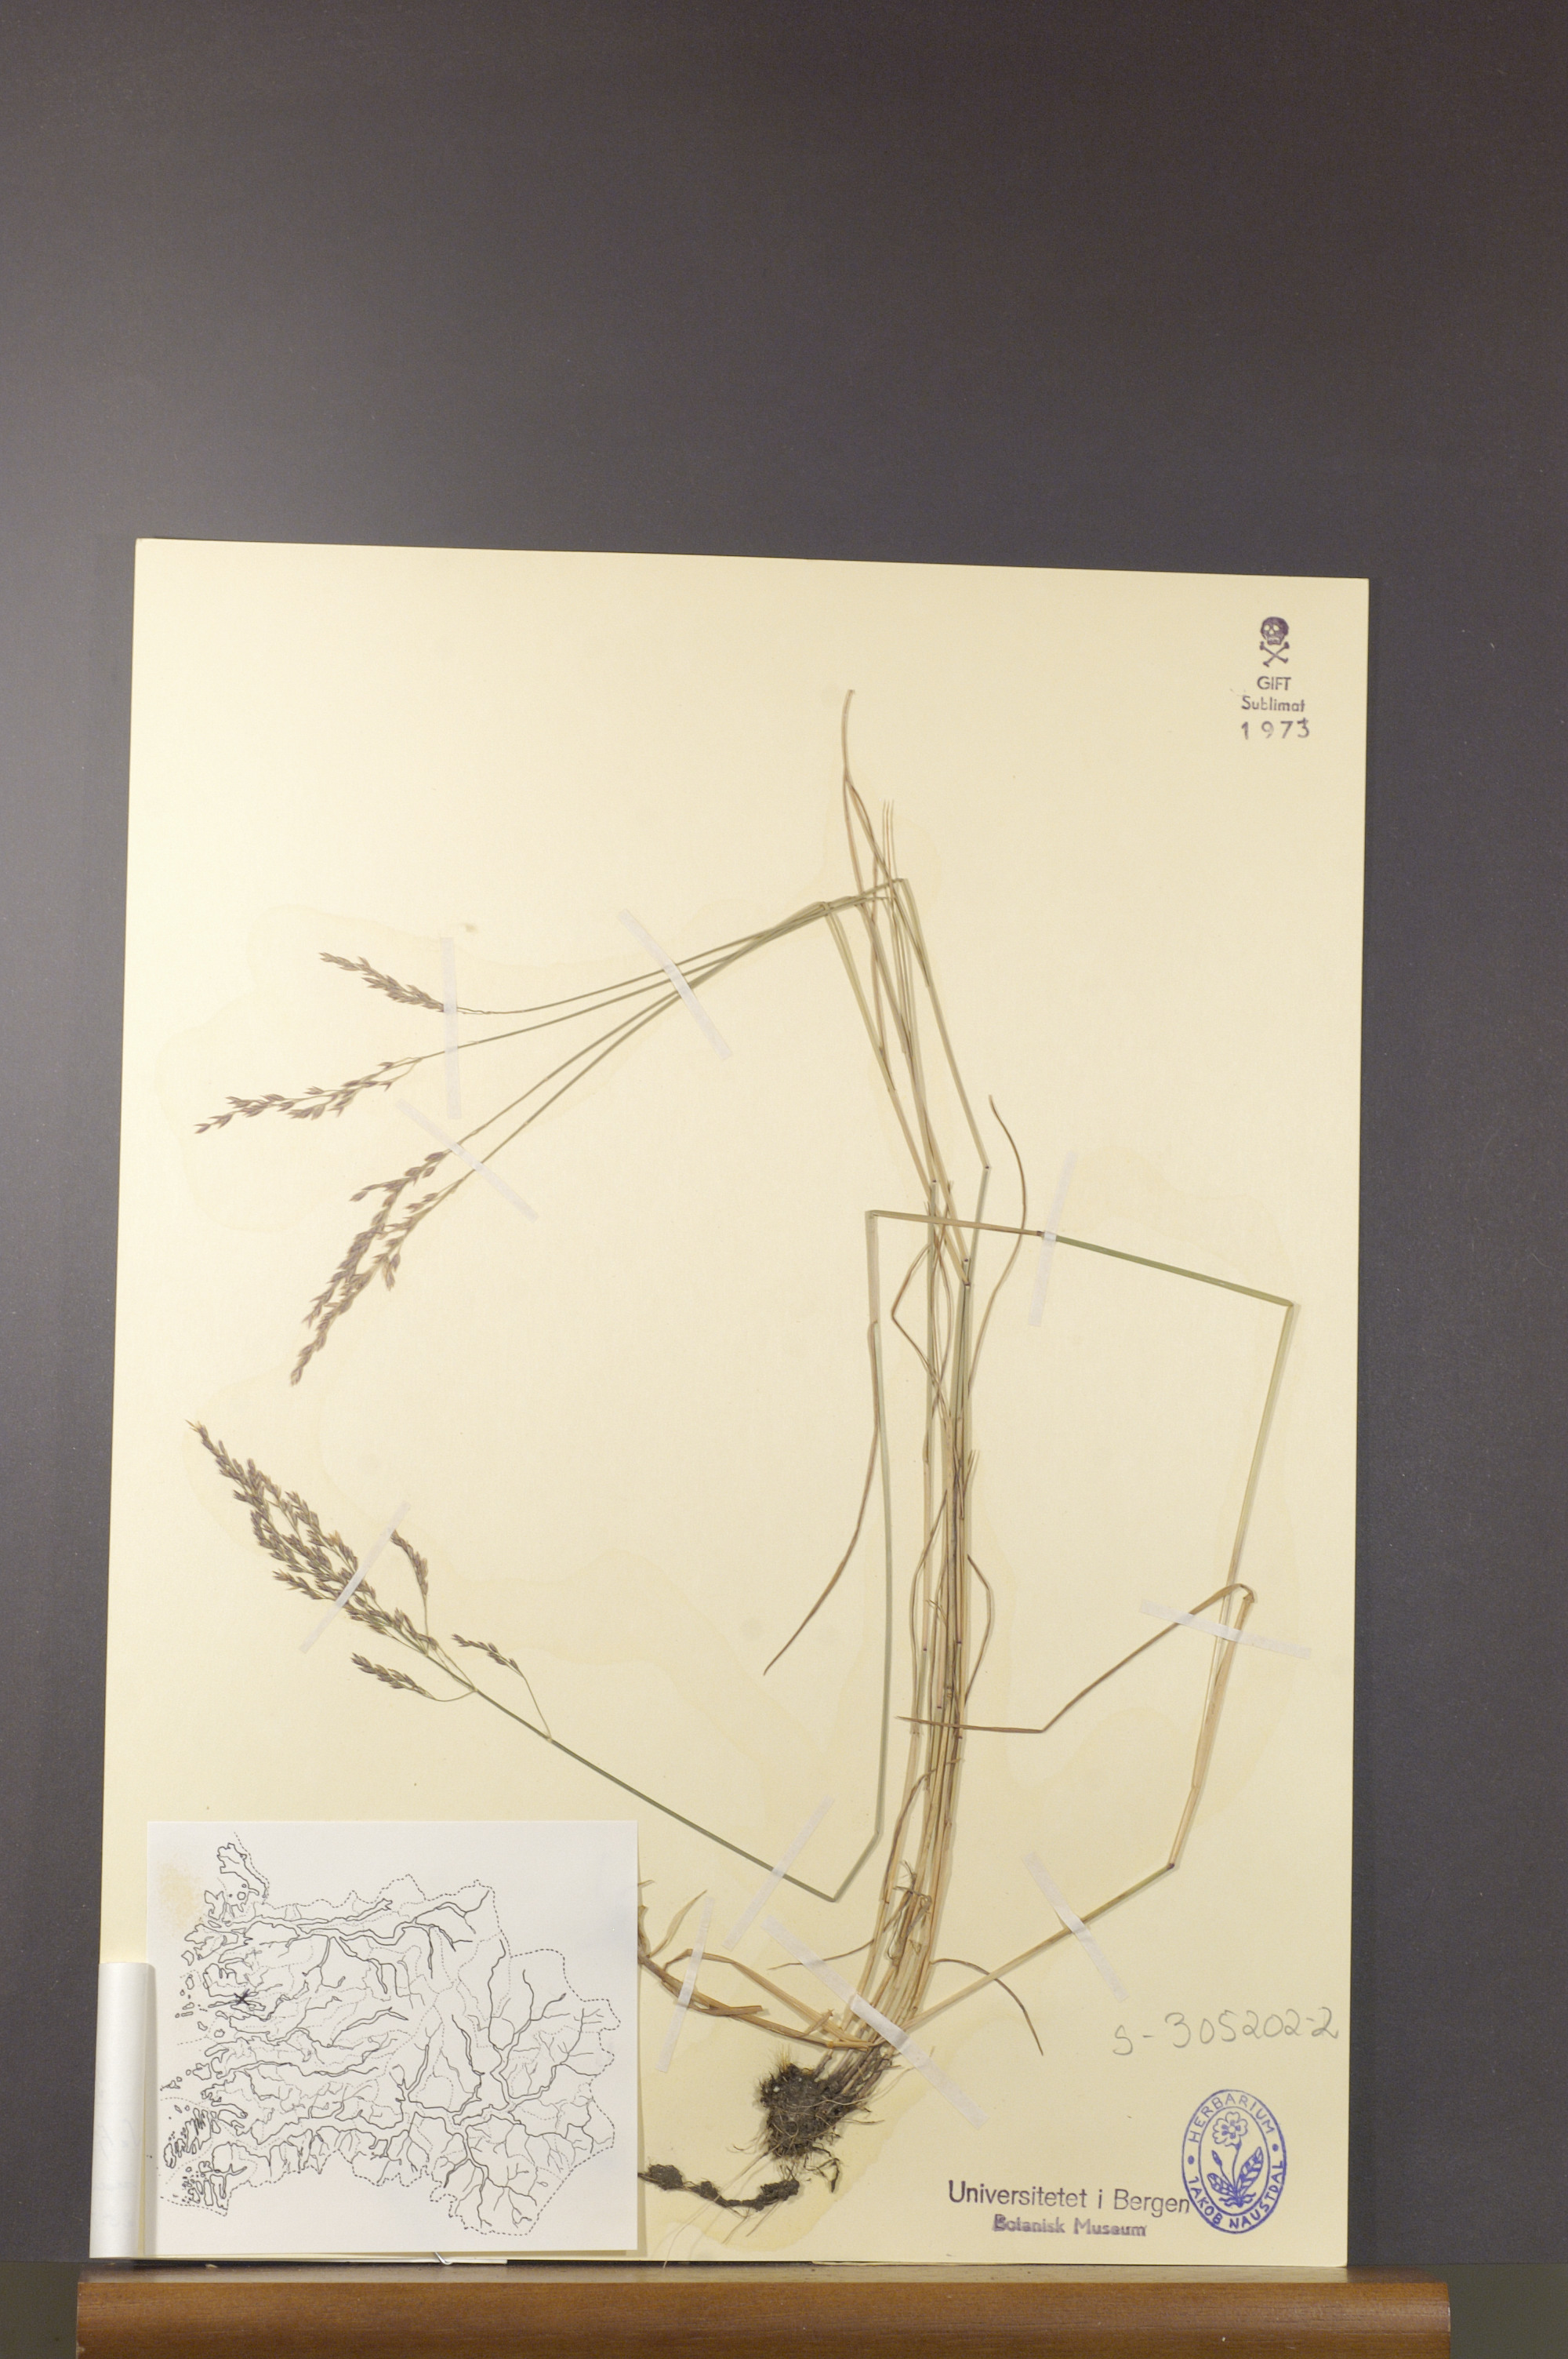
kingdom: Plantae
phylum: Tracheophyta
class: Liliopsida
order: Poales
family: Poaceae
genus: Poa
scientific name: Poa nemoralis
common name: Wood bluegrass
